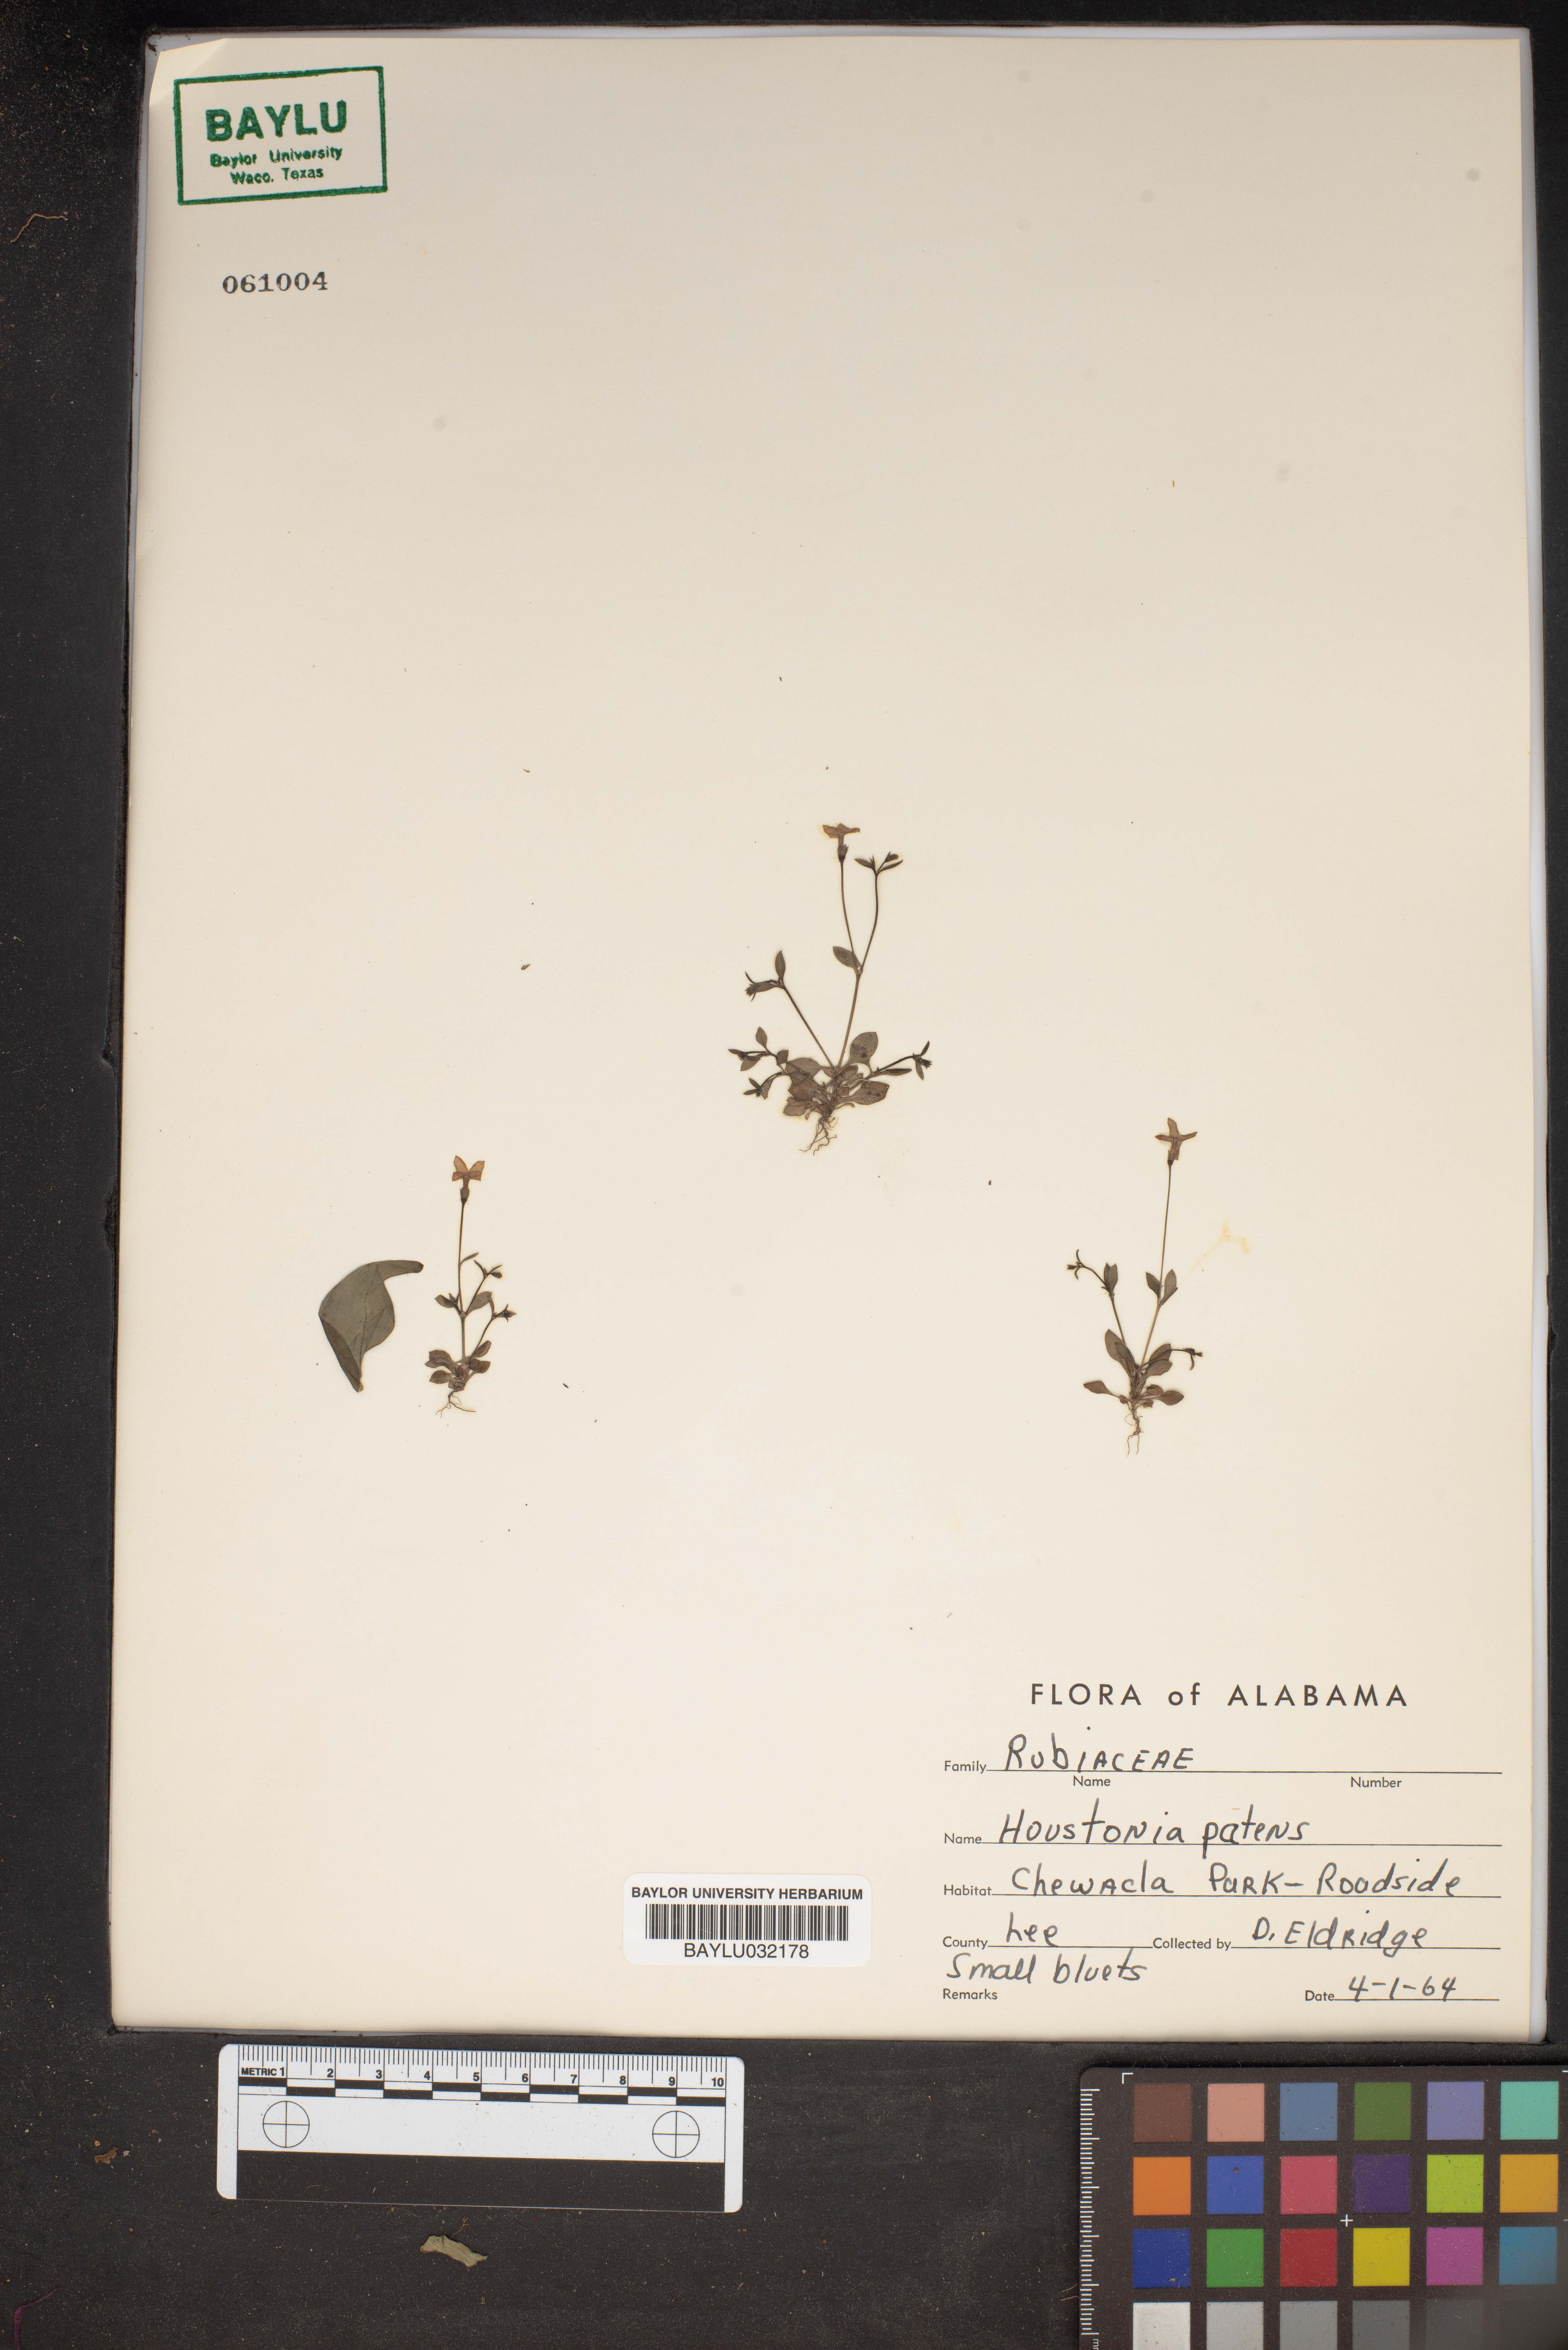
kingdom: Plantae
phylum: Tracheophyta
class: Magnoliopsida
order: Gentianales
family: Rubiaceae
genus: Houstonia
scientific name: Houstonia pusilla
